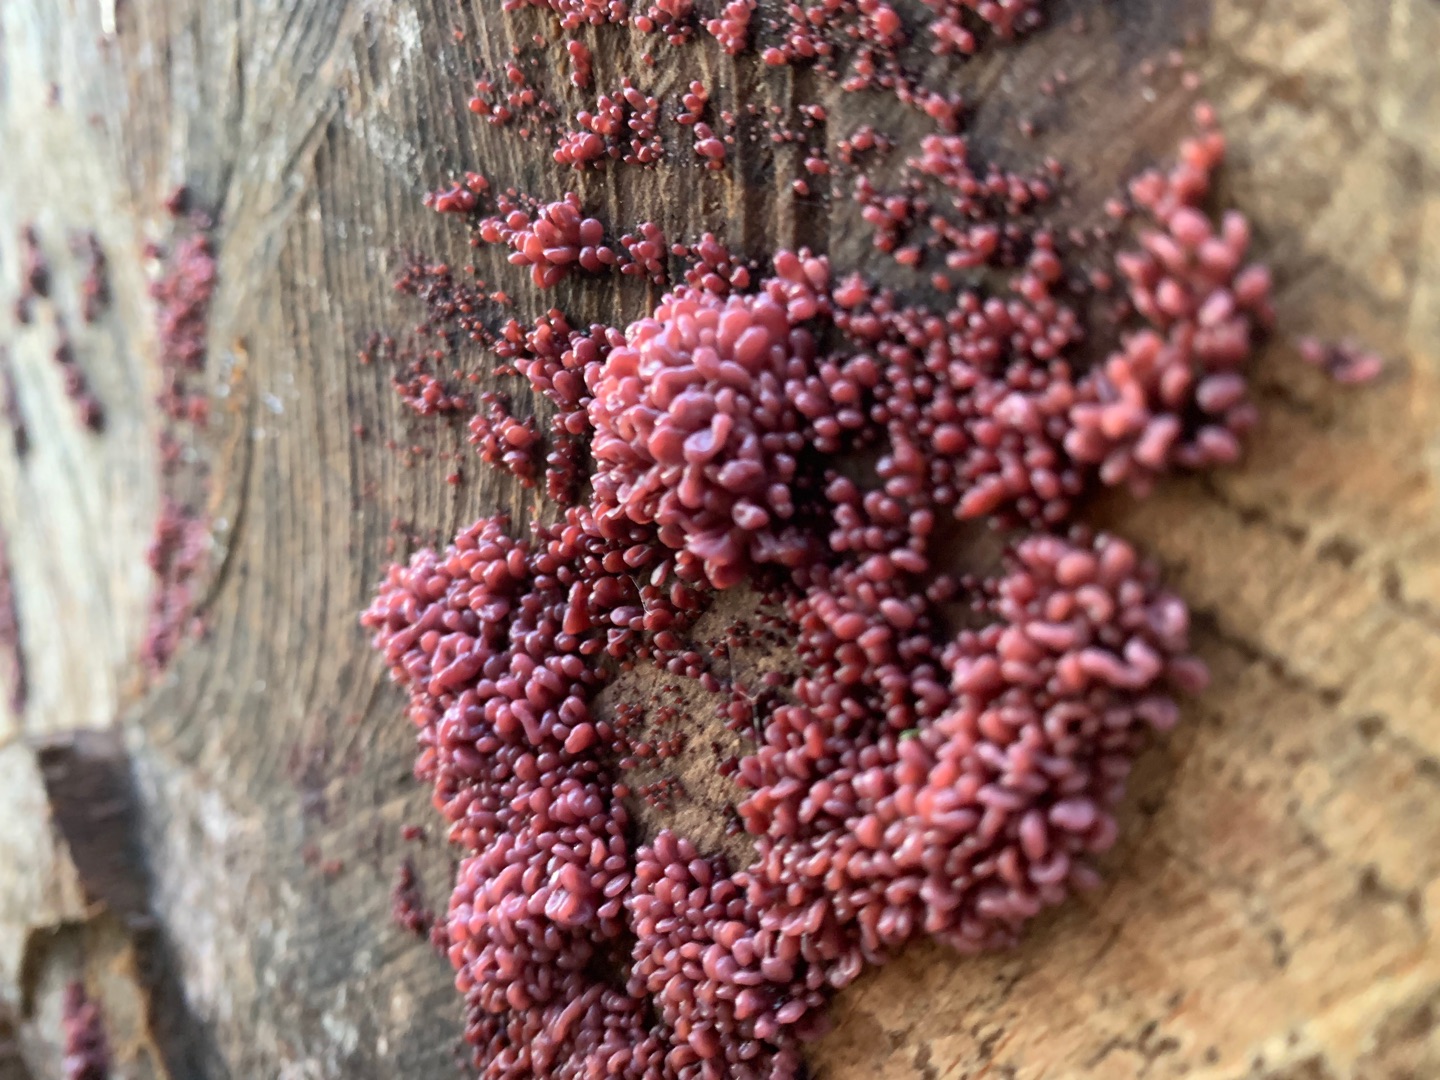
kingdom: Fungi
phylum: Ascomycota
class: Leotiomycetes
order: Helotiales
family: Gelatinodiscaceae
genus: Ascocoryne
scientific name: Ascocoryne sarcoides
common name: Rødlilla sejskive
